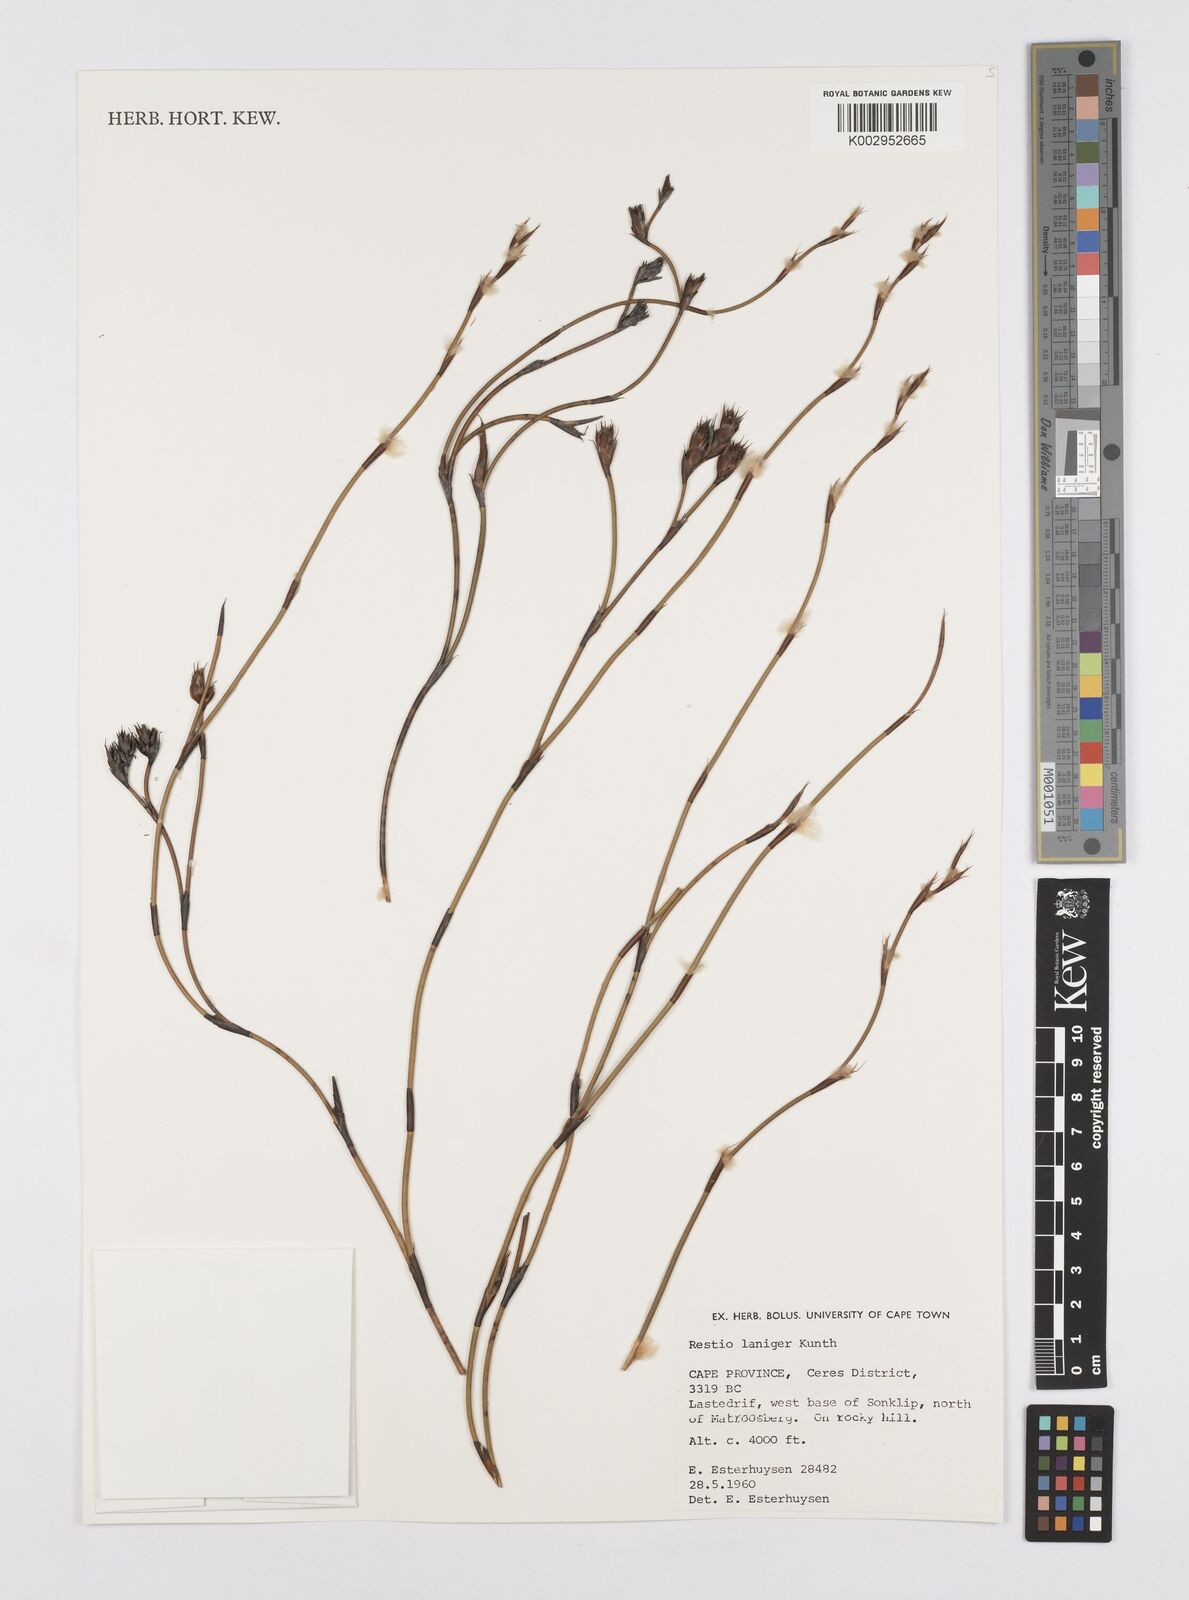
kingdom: Plantae
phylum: Tracheophyta
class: Liliopsida
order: Poales
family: Restionaceae
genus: Restio
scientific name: Restio laniger
